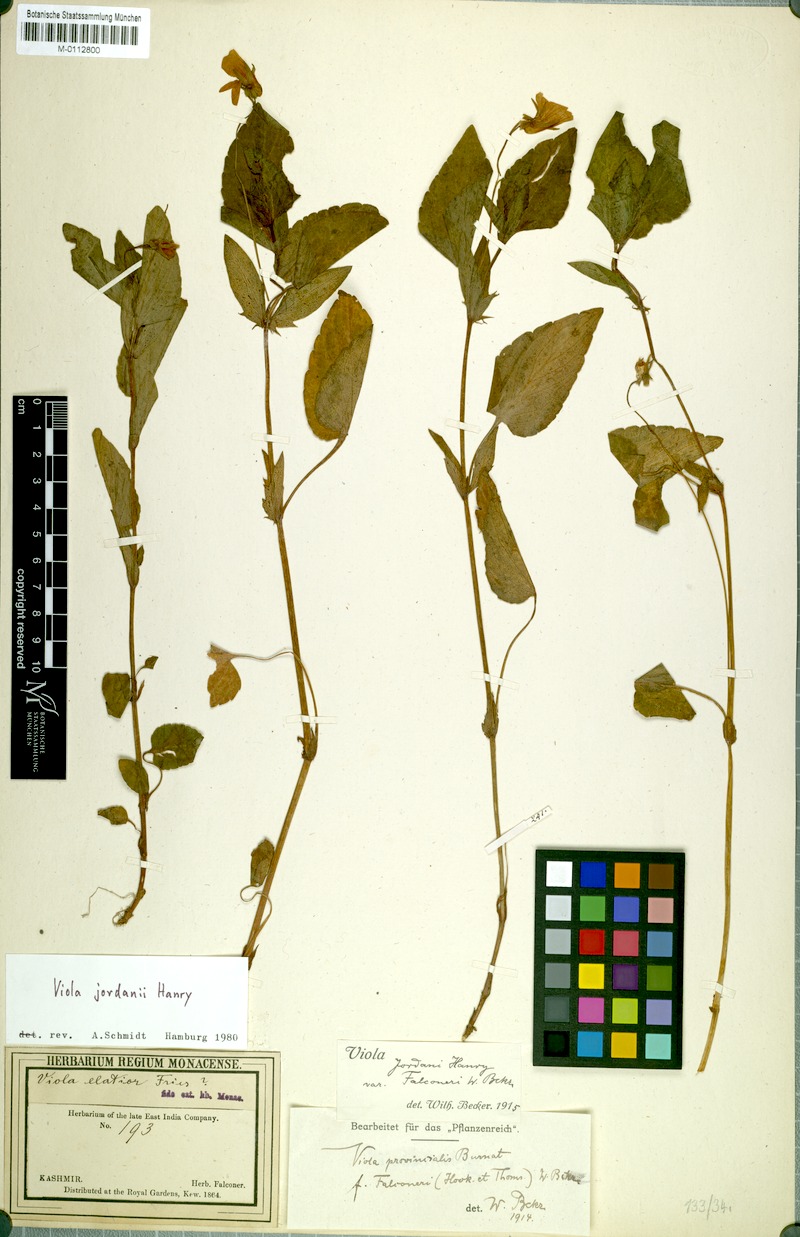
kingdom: Plantae
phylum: Tracheophyta
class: Magnoliopsida
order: Malpighiales
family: Violaceae
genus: Viola
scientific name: Viola jordanii
